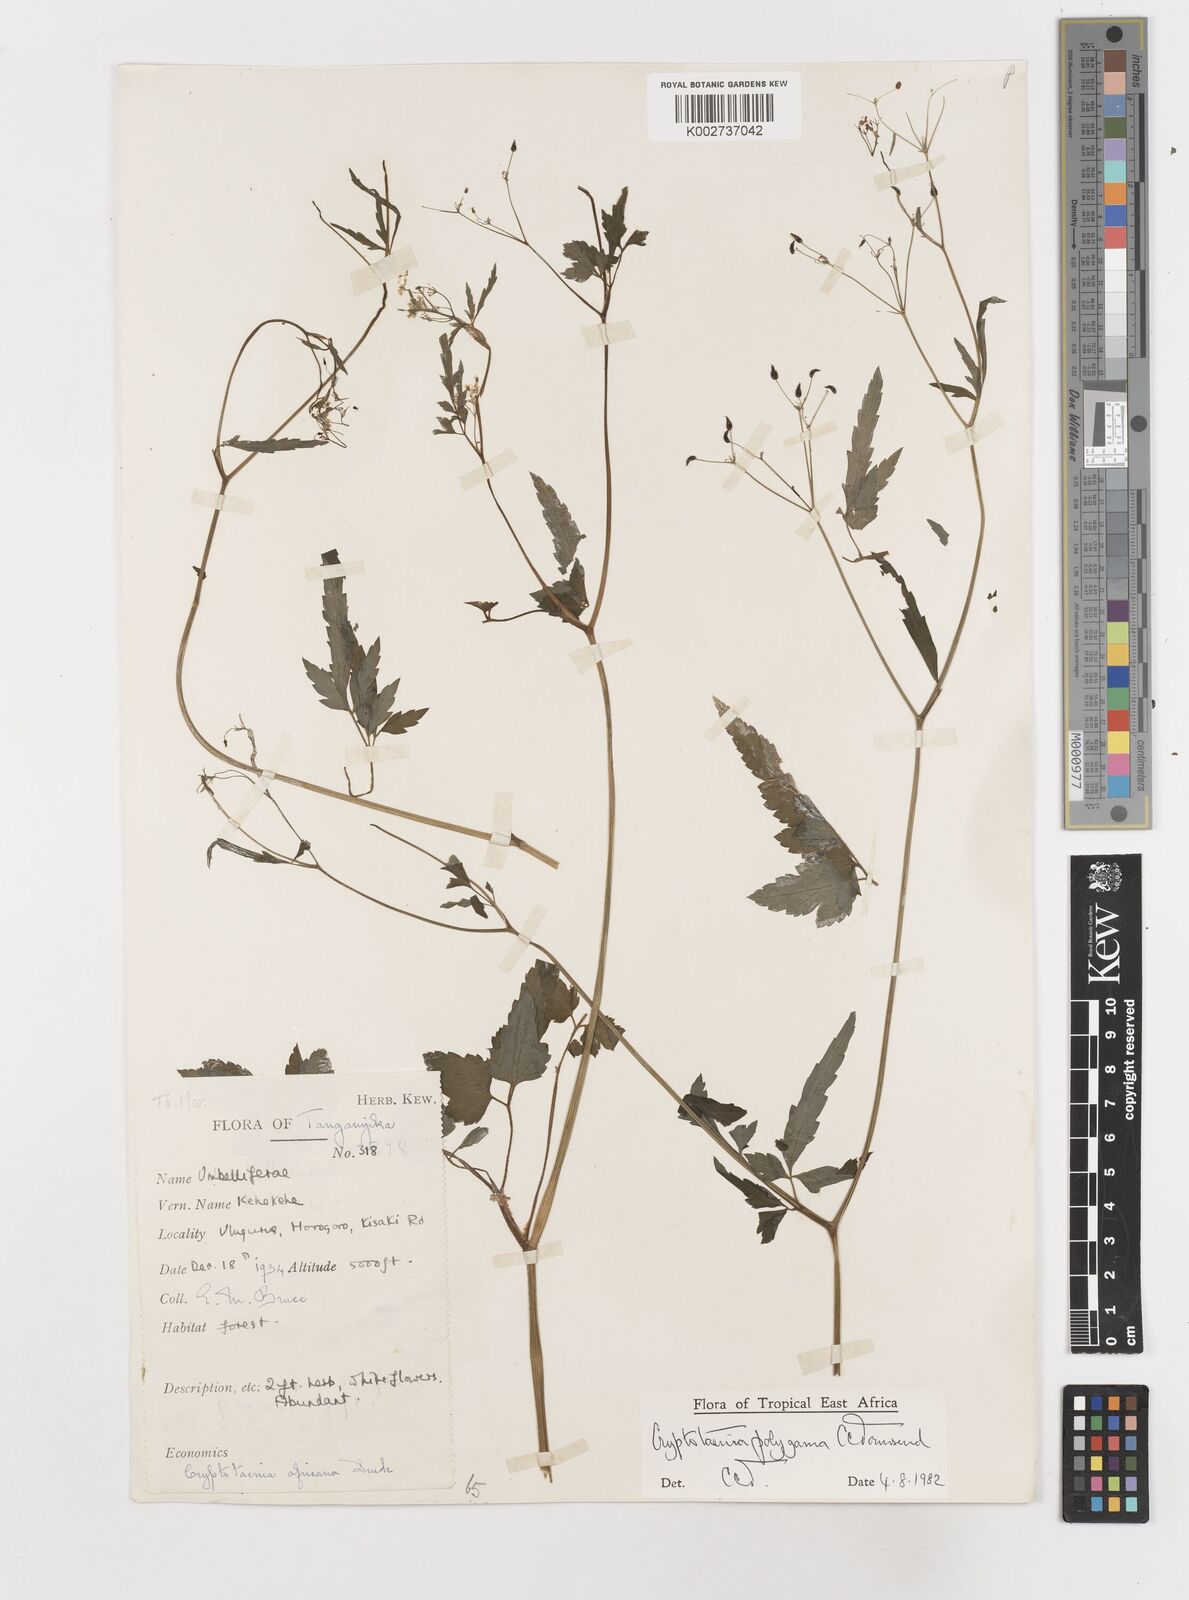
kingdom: Plantae
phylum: Tracheophyta
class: Magnoliopsida
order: Apiales
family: Apiaceae
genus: Cryptotaenia
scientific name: Cryptotaenia polygama
